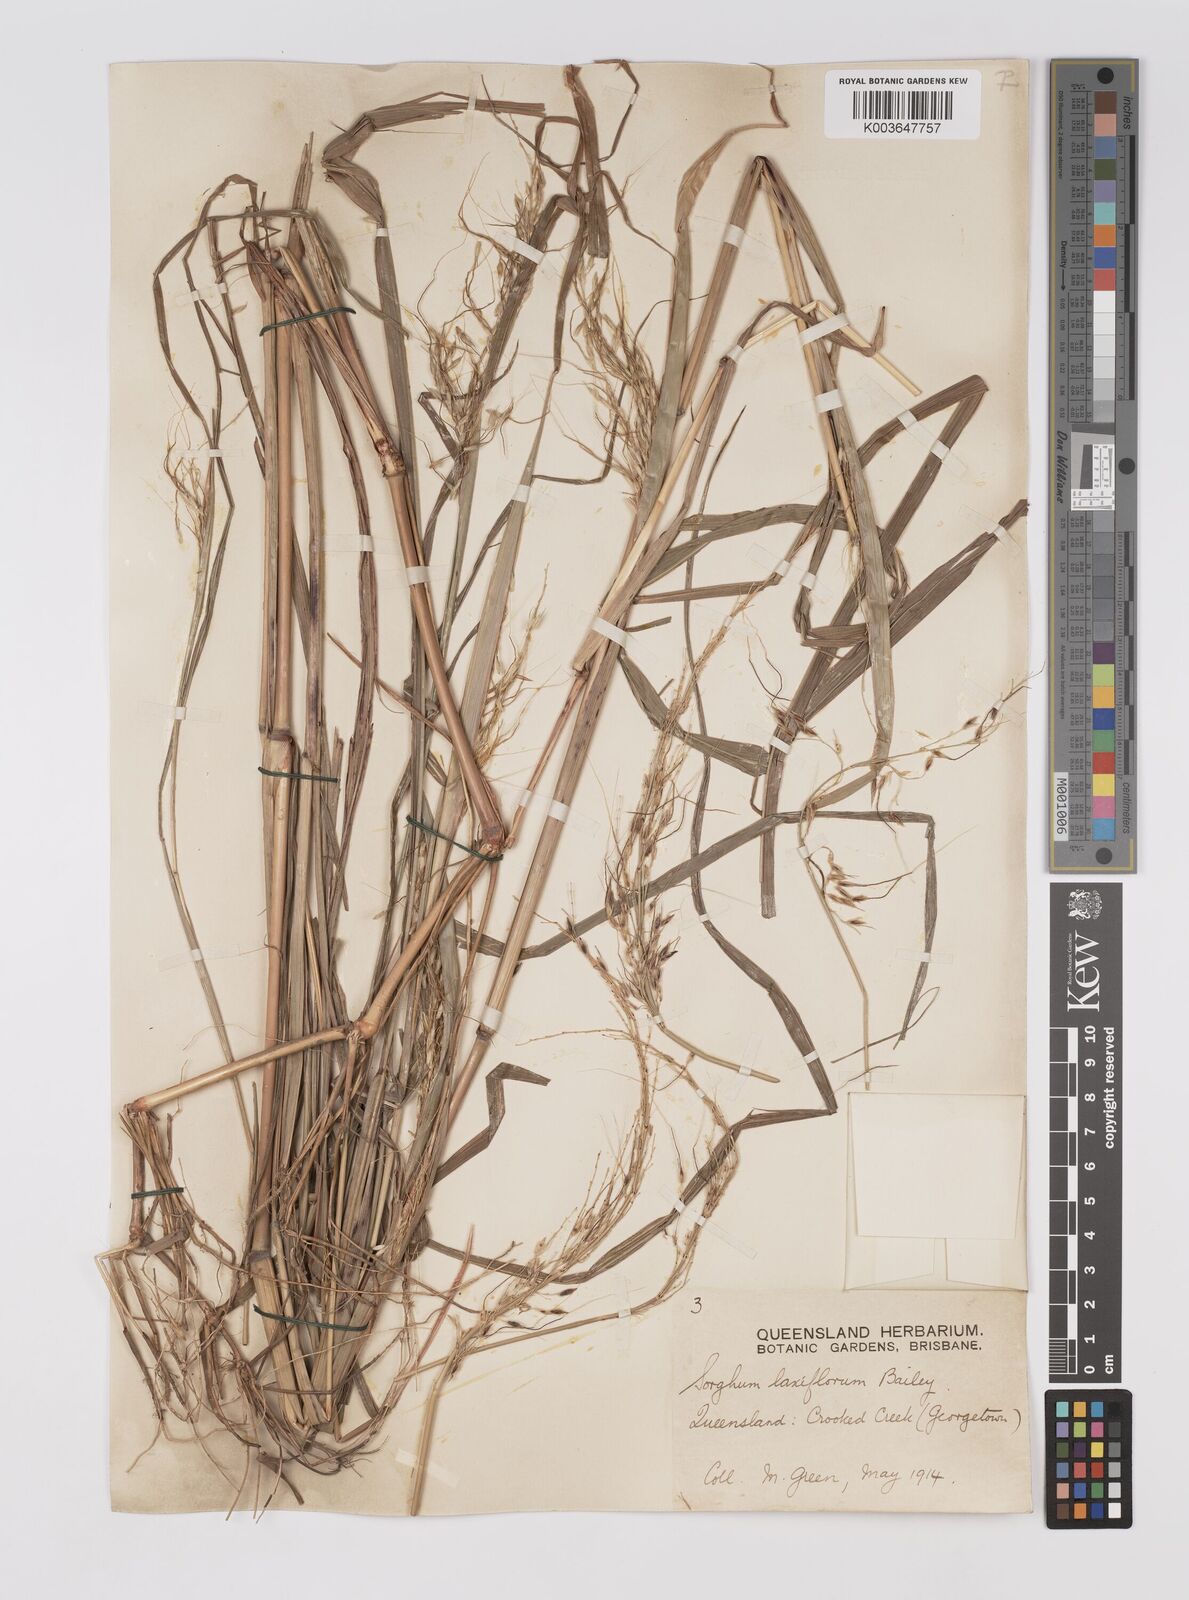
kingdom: Plantae
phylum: Tracheophyta
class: Liliopsida
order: Poales
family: Poaceae
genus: Sorghum
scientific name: Sorghum laxiflorum
